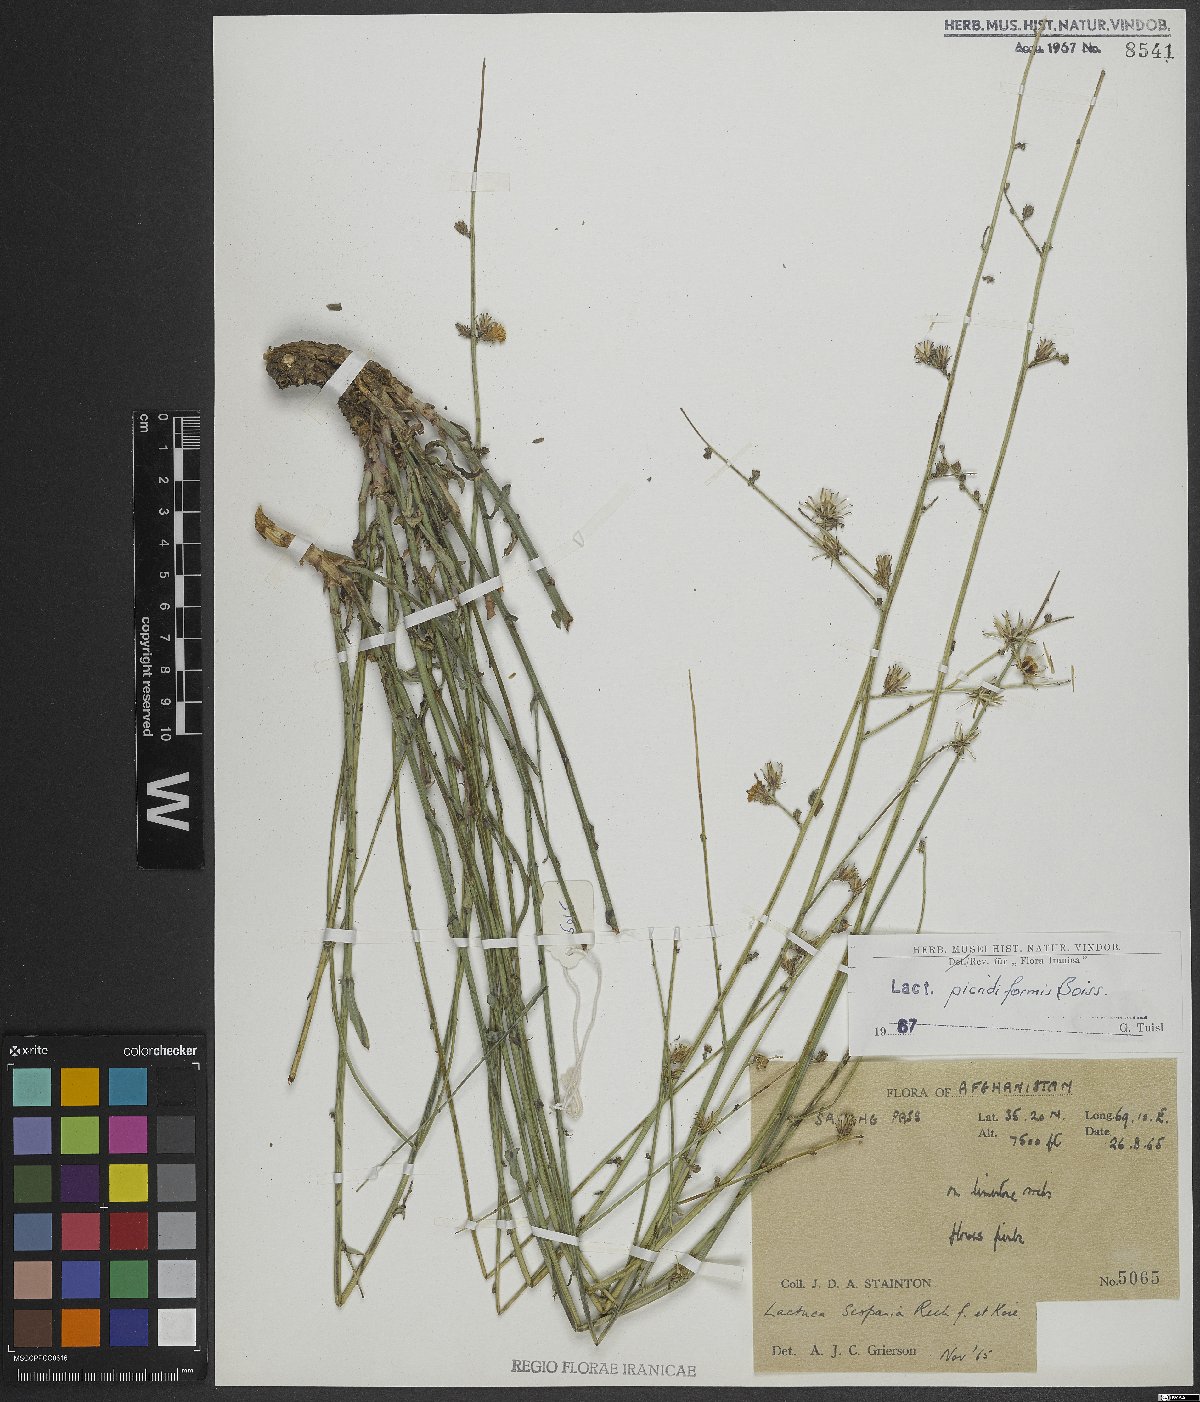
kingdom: Plantae
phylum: Tracheophyta
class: Magnoliopsida
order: Asterales
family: Asteraceae
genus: Lactuca
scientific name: Lactuca picridiformis
